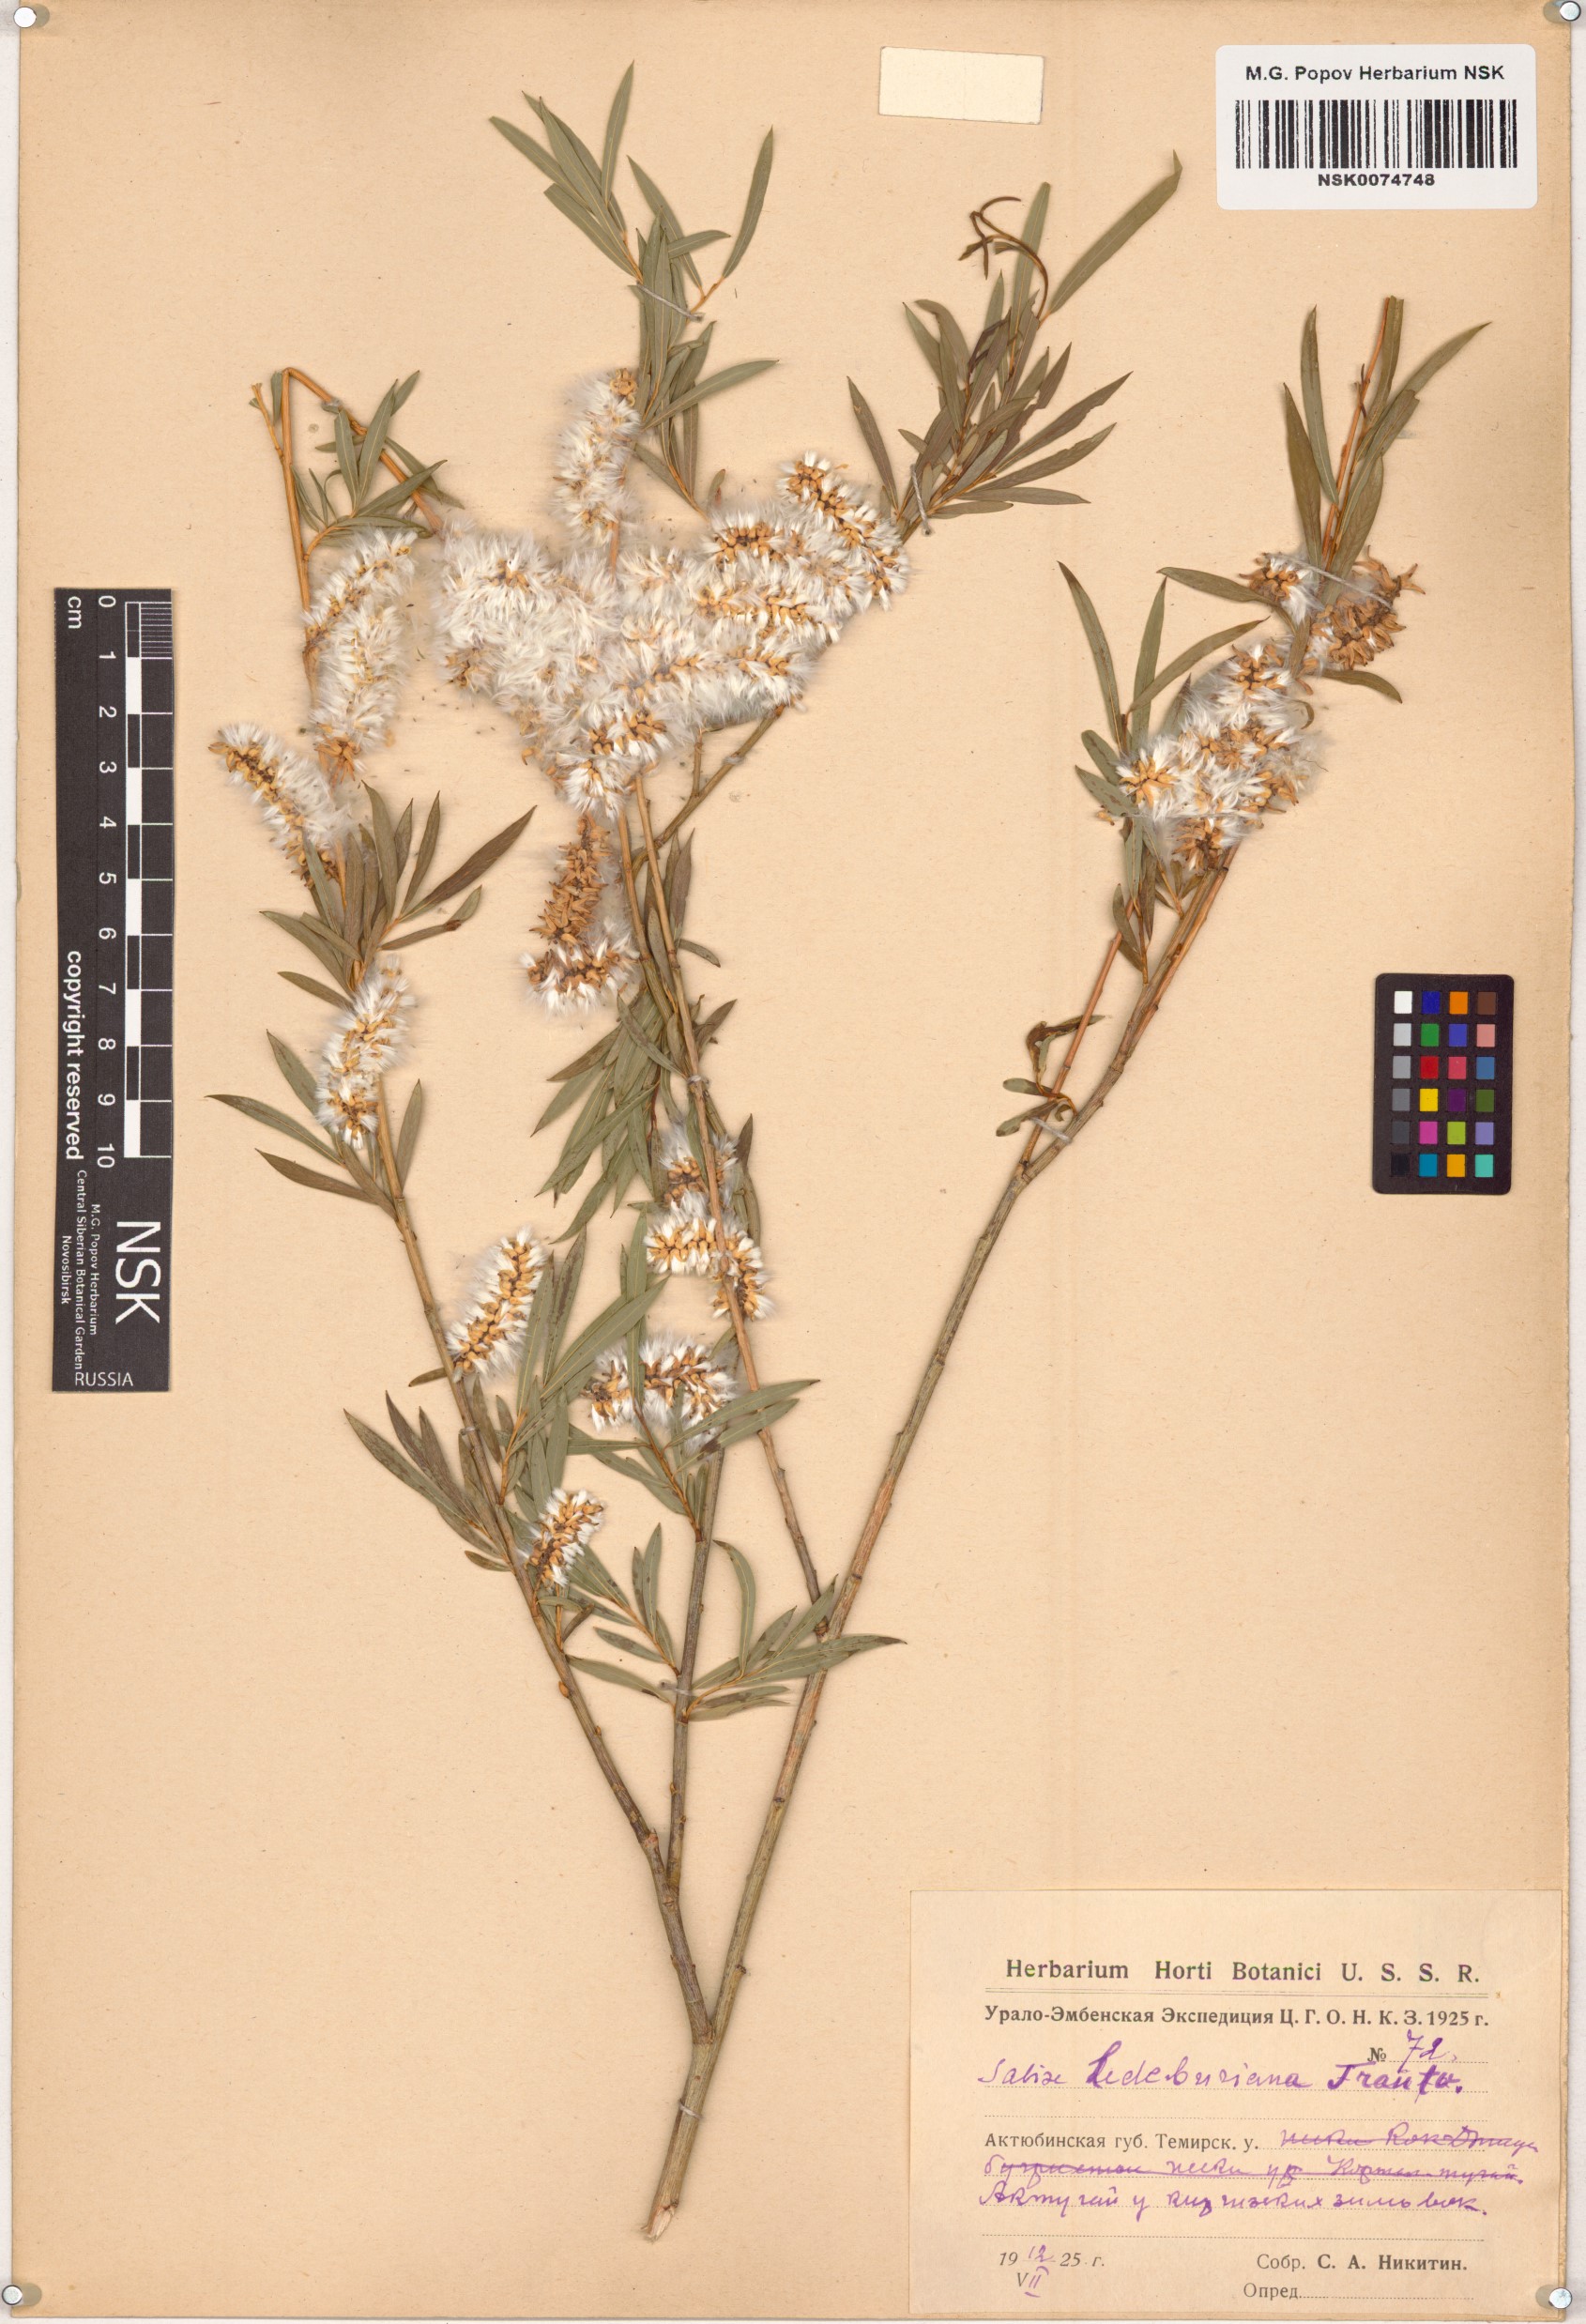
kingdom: Plantae
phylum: Tracheophyta
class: Magnoliopsida
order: Malpighiales
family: Salicaceae
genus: Salix
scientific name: Salix ledebouriana
